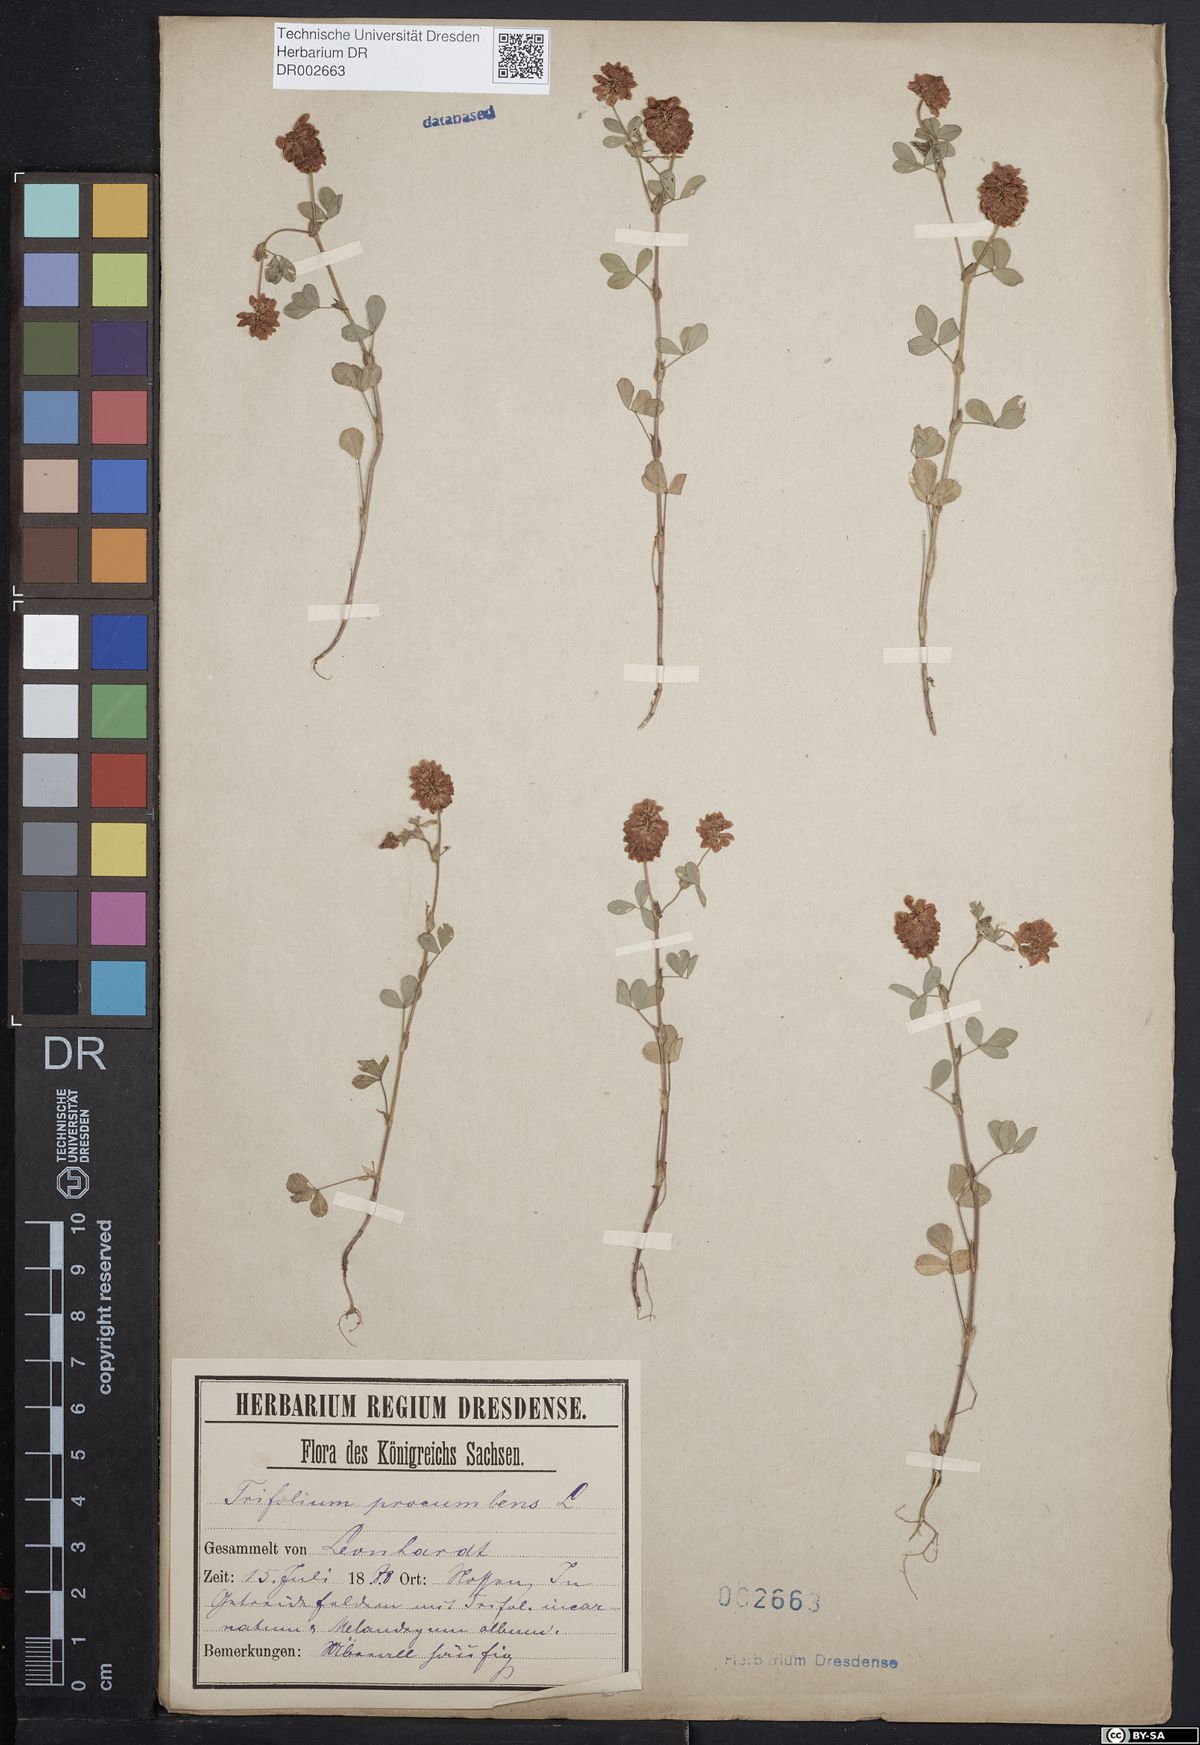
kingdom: Plantae
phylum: Tracheophyta
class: Magnoliopsida
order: Fabales
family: Fabaceae
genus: Trifolium
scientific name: Trifolium campestre
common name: Field clover
